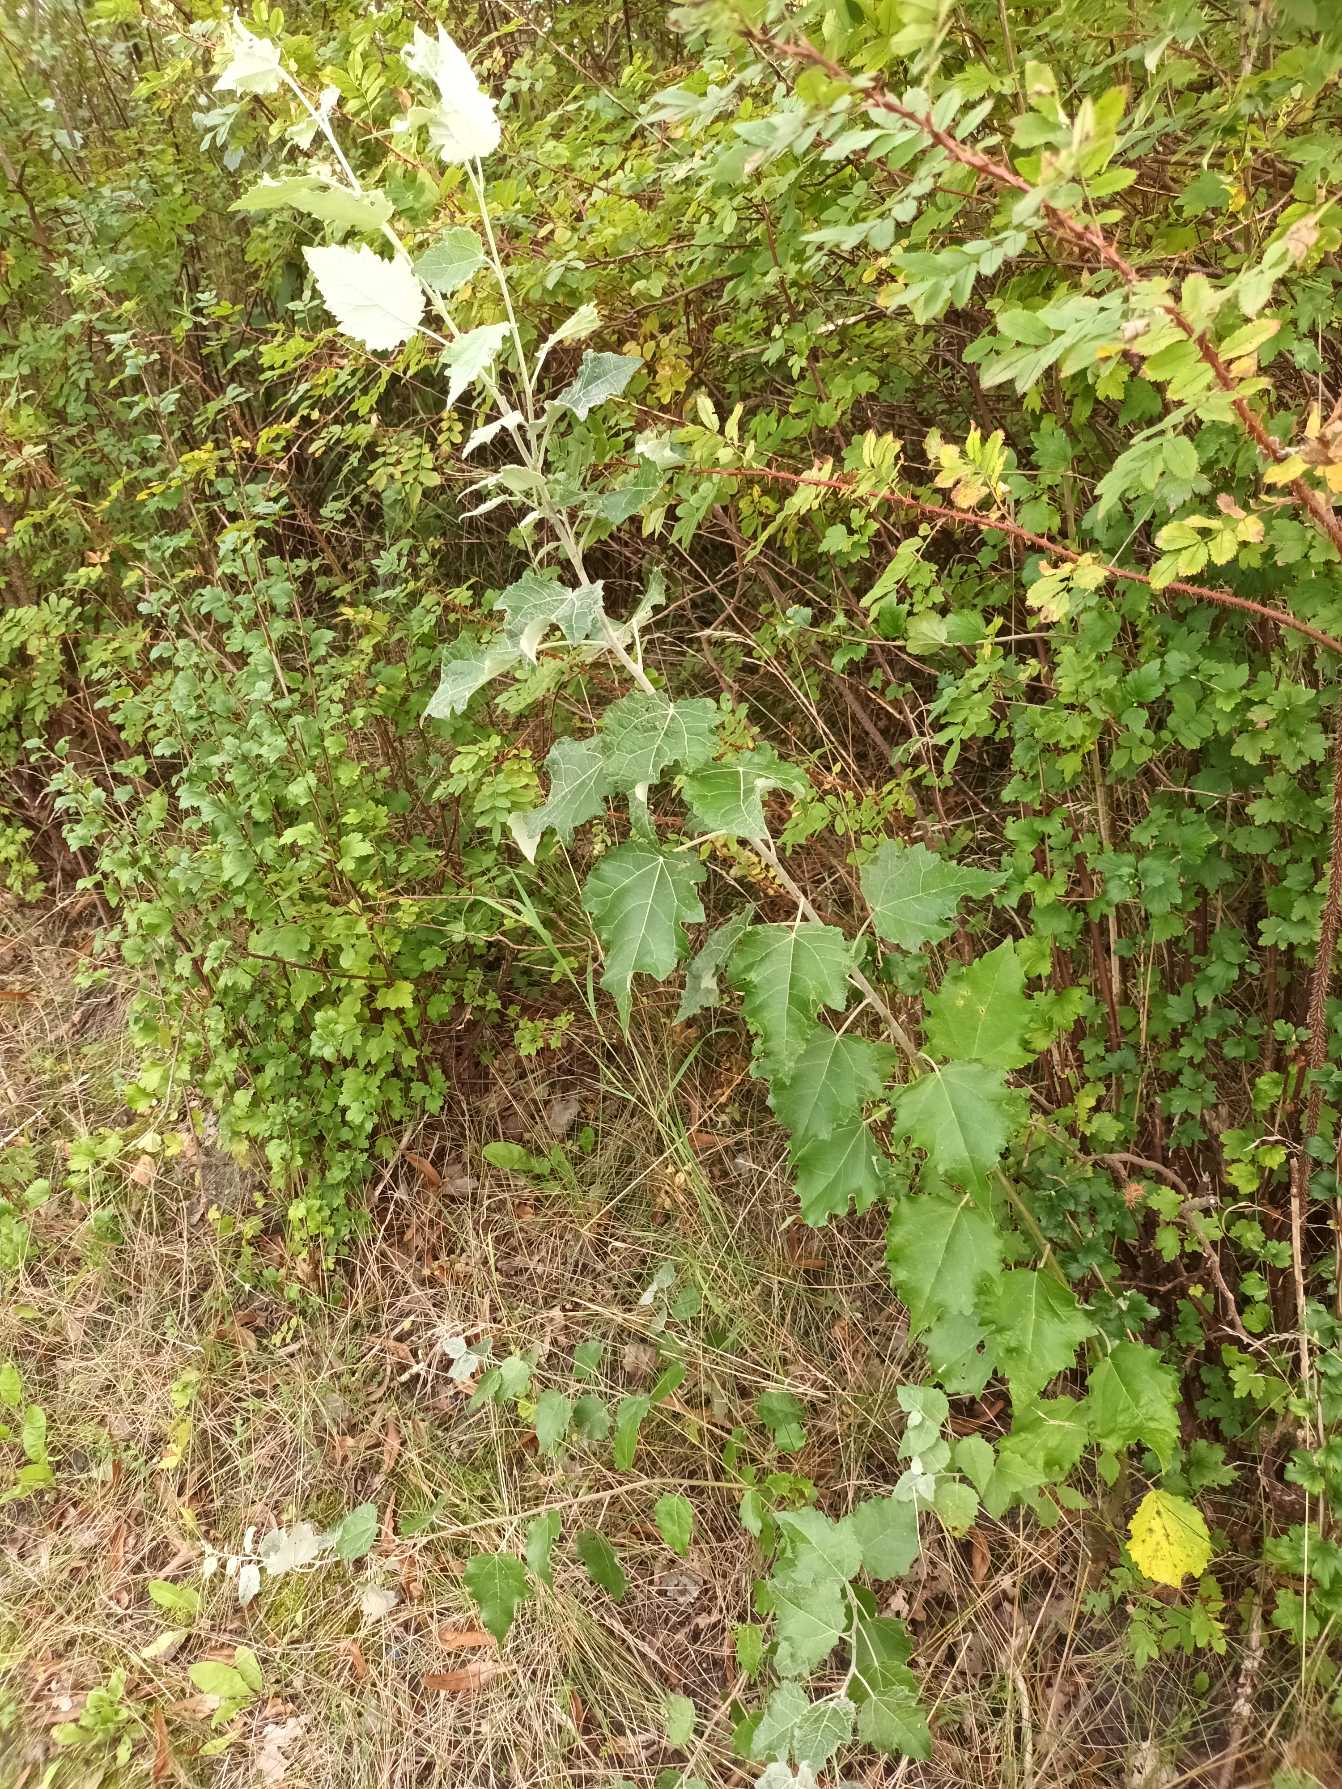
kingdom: Plantae
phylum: Tracheophyta
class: Magnoliopsida
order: Malpighiales
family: Salicaceae
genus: Populus
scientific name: Populus canescens
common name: Grå-poppel
